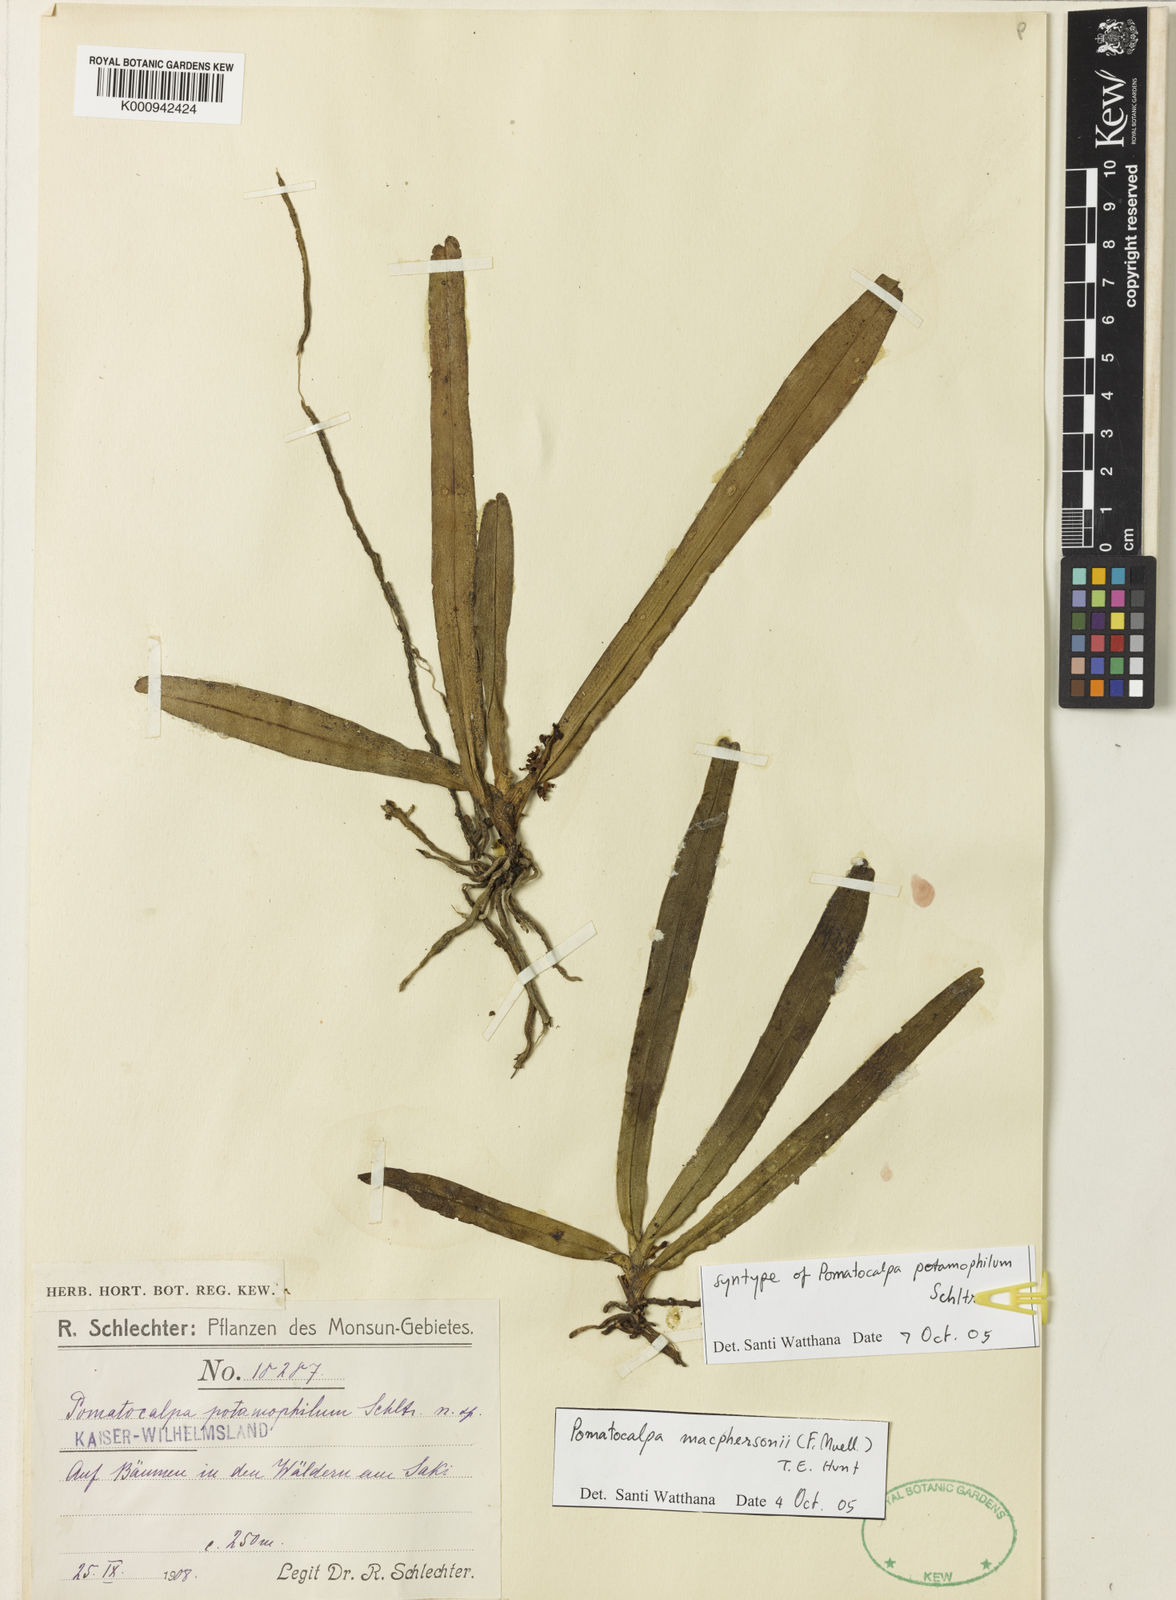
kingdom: Plantae
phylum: Tracheophyta
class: Liliopsida
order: Asparagales
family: Orchidaceae
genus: Pomatocalpa
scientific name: Pomatocalpa macphersonii
